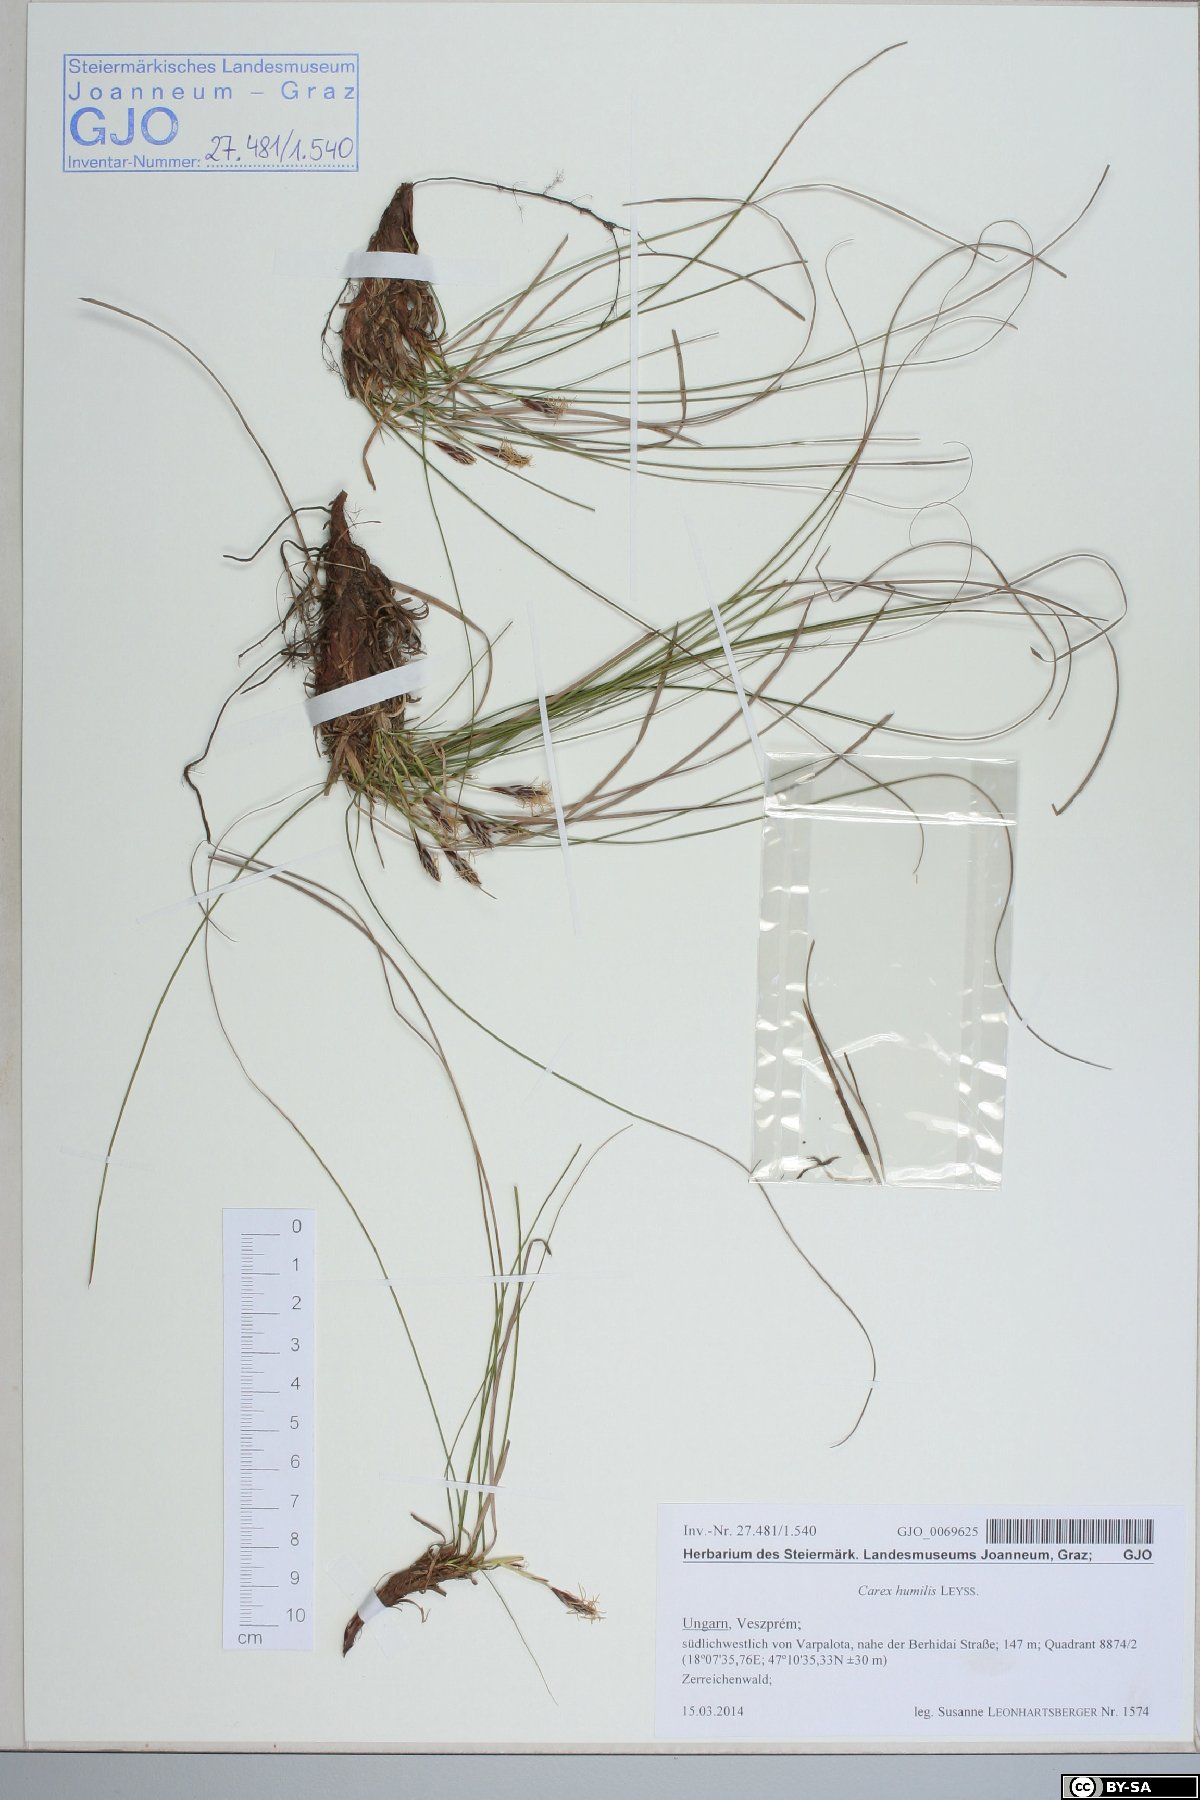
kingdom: Plantae
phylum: Tracheophyta
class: Liliopsida
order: Poales
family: Cyperaceae
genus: Carex
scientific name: Carex humilis
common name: Dwarf sedge
